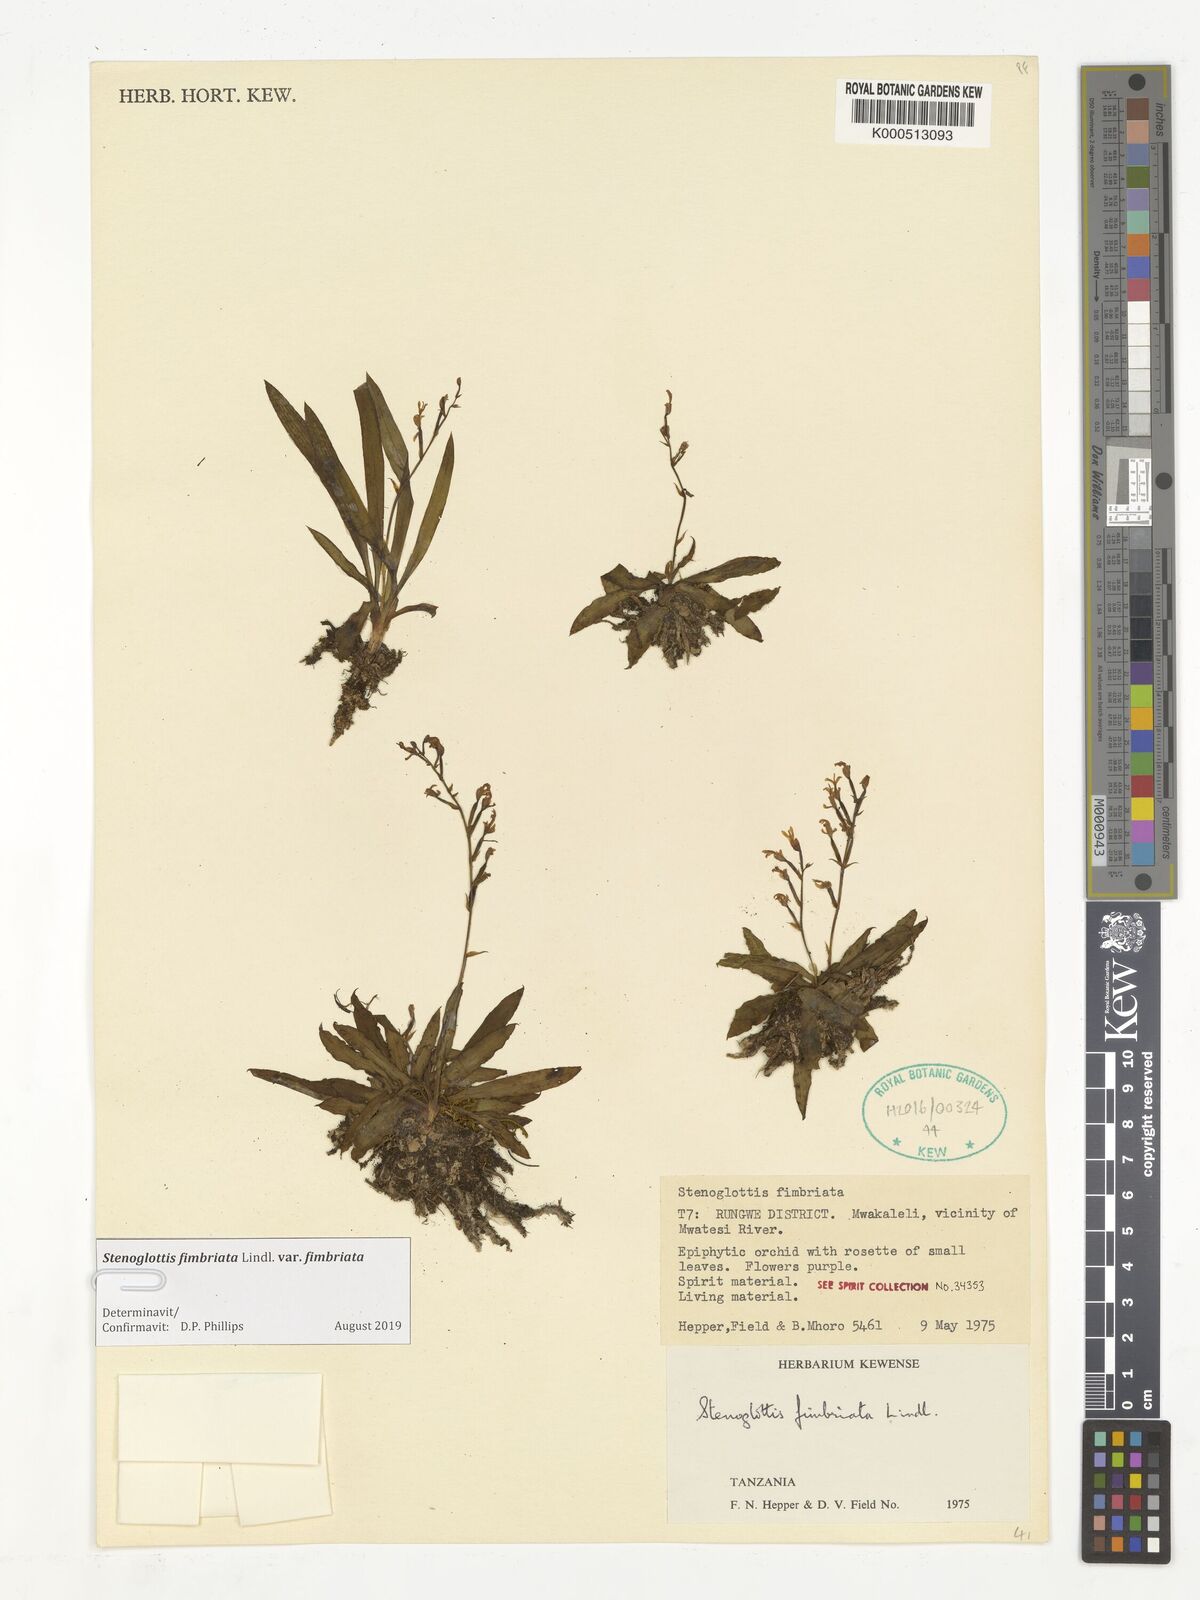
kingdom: Plantae
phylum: Tracheophyta
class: Liliopsida
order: Asparagales
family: Orchidaceae
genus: Stenoglottis
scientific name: Stenoglottis fimbriata
